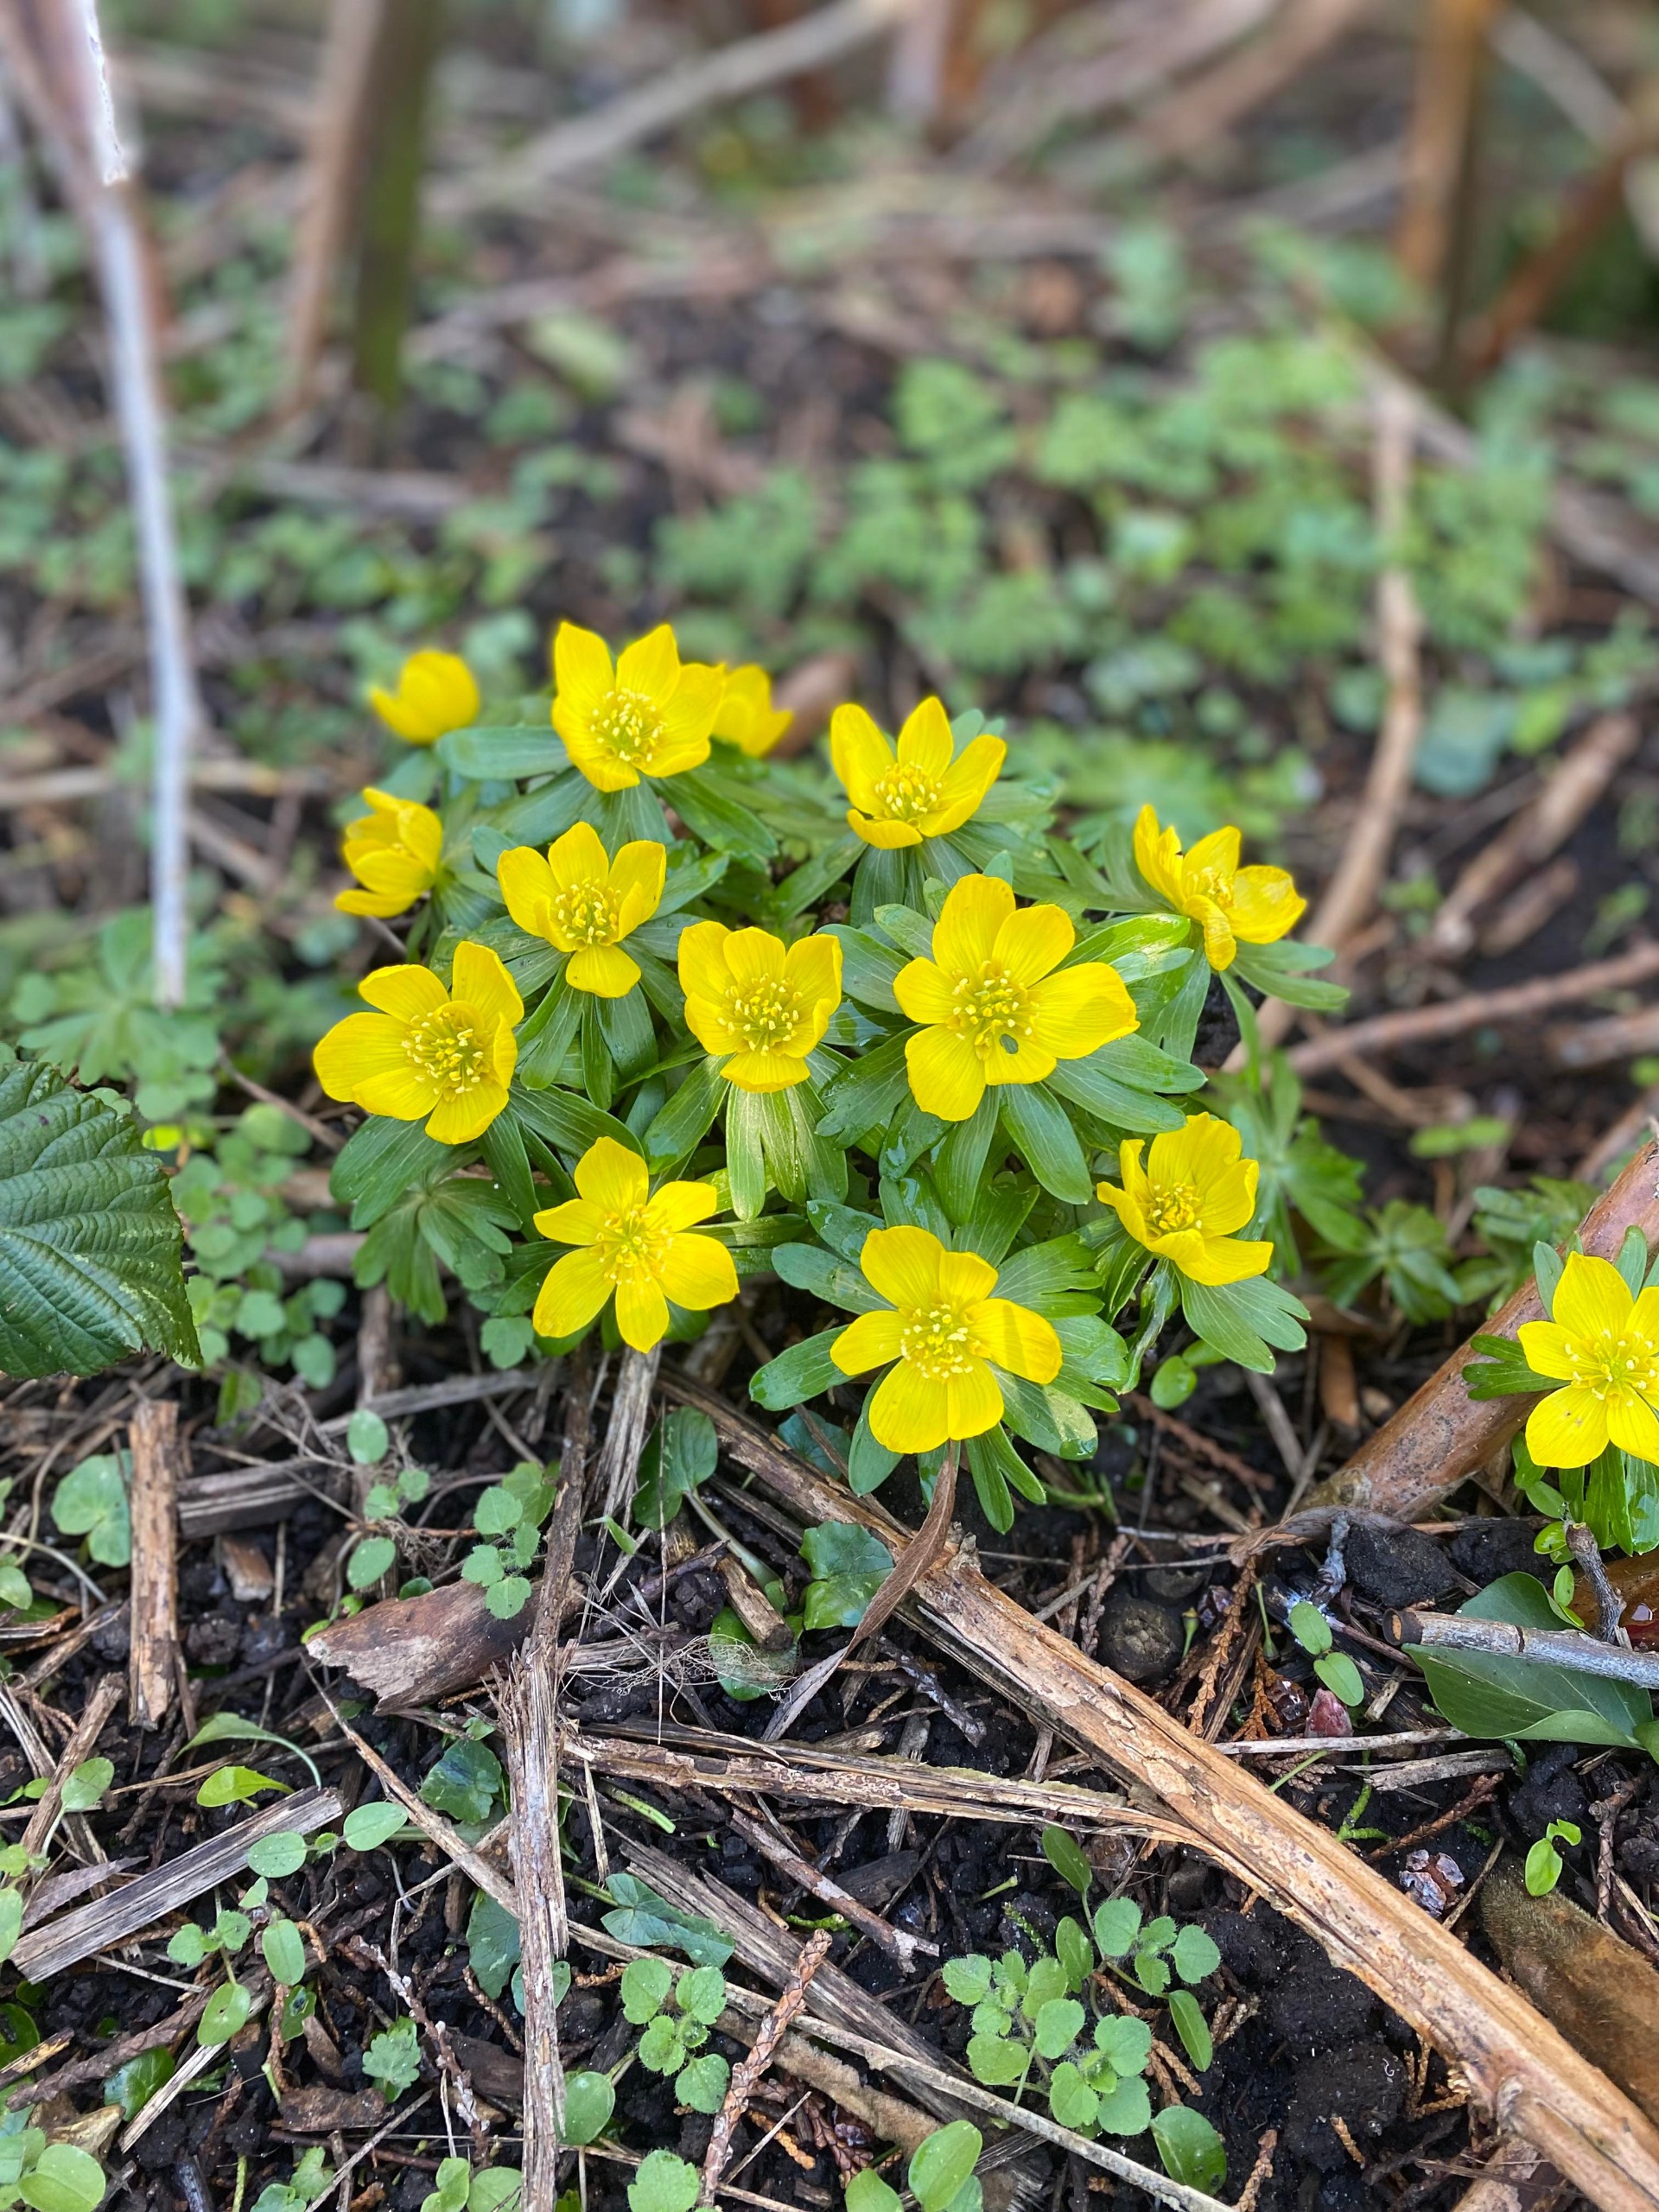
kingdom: Plantae
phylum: Tracheophyta
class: Magnoliopsida
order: Ranunculales
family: Ranunculaceae
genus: Eranthis
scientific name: Eranthis hyemalis
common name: Erantis
